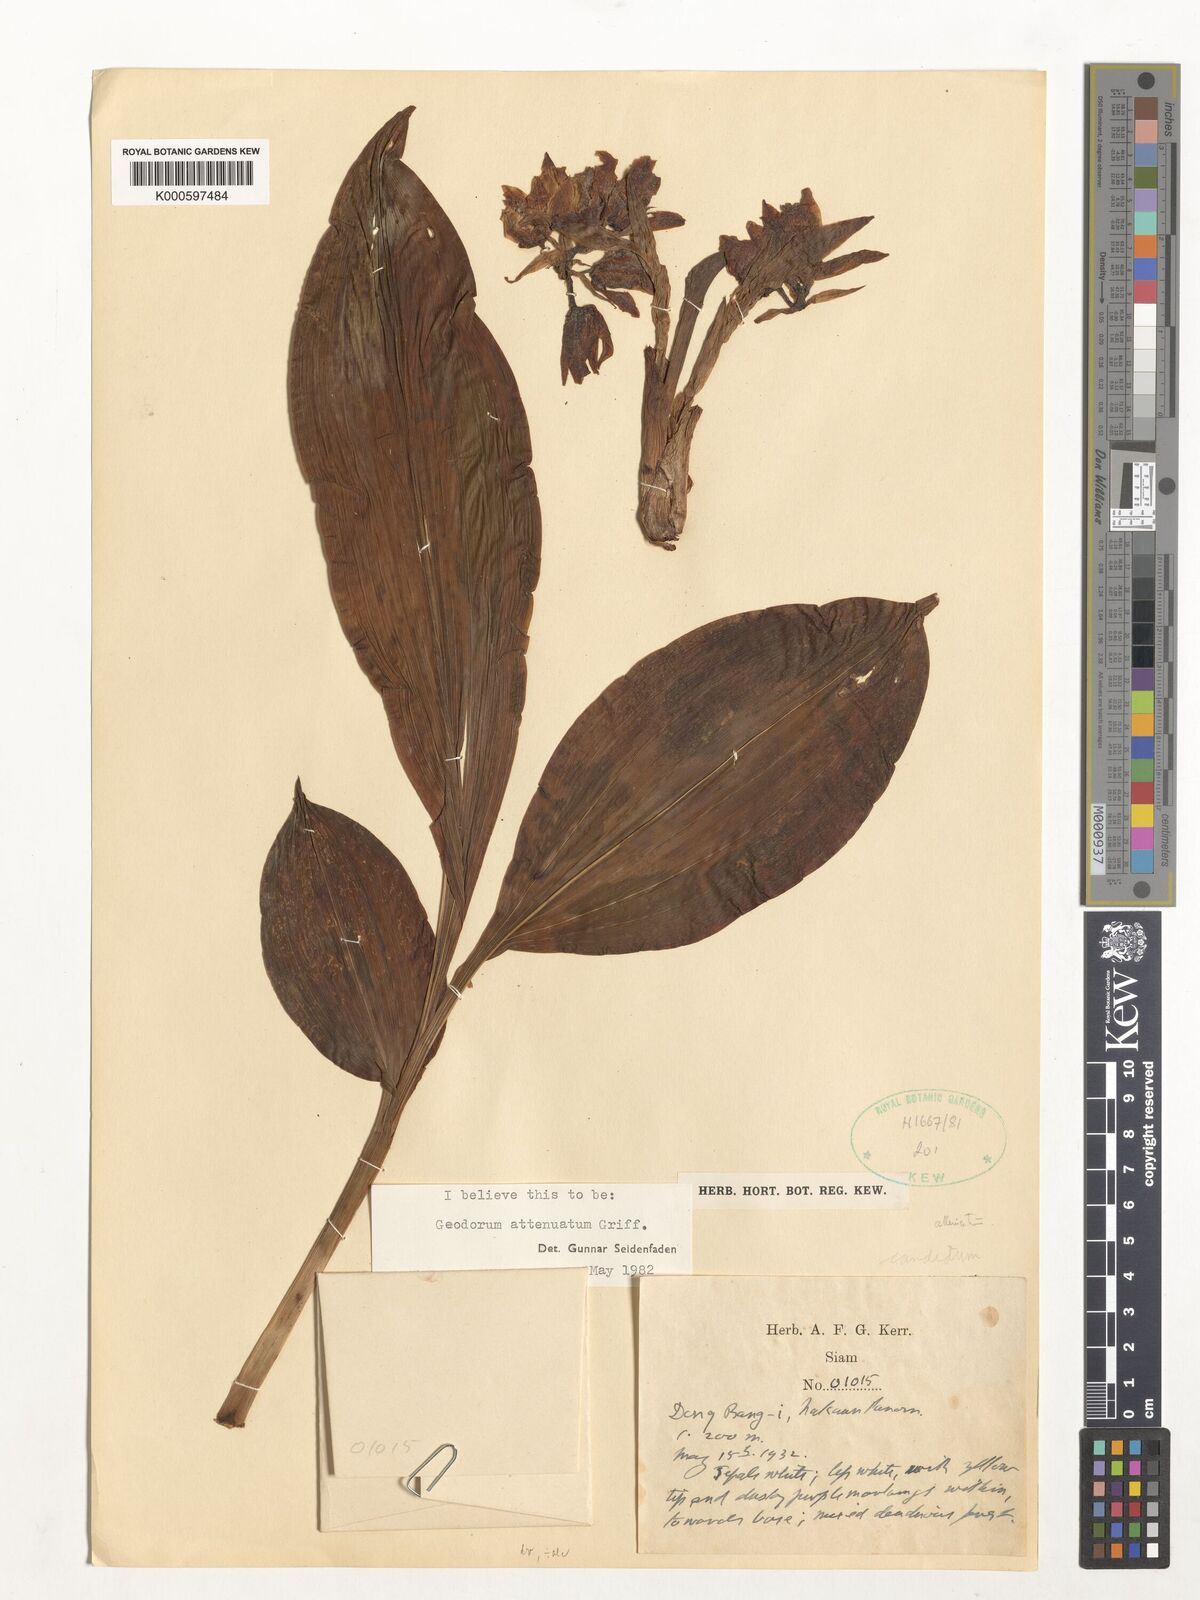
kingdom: Plantae
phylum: Tracheophyta
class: Liliopsida
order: Asparagales
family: Orchidaceae
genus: Eulophia
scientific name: Eulophia attenuata
